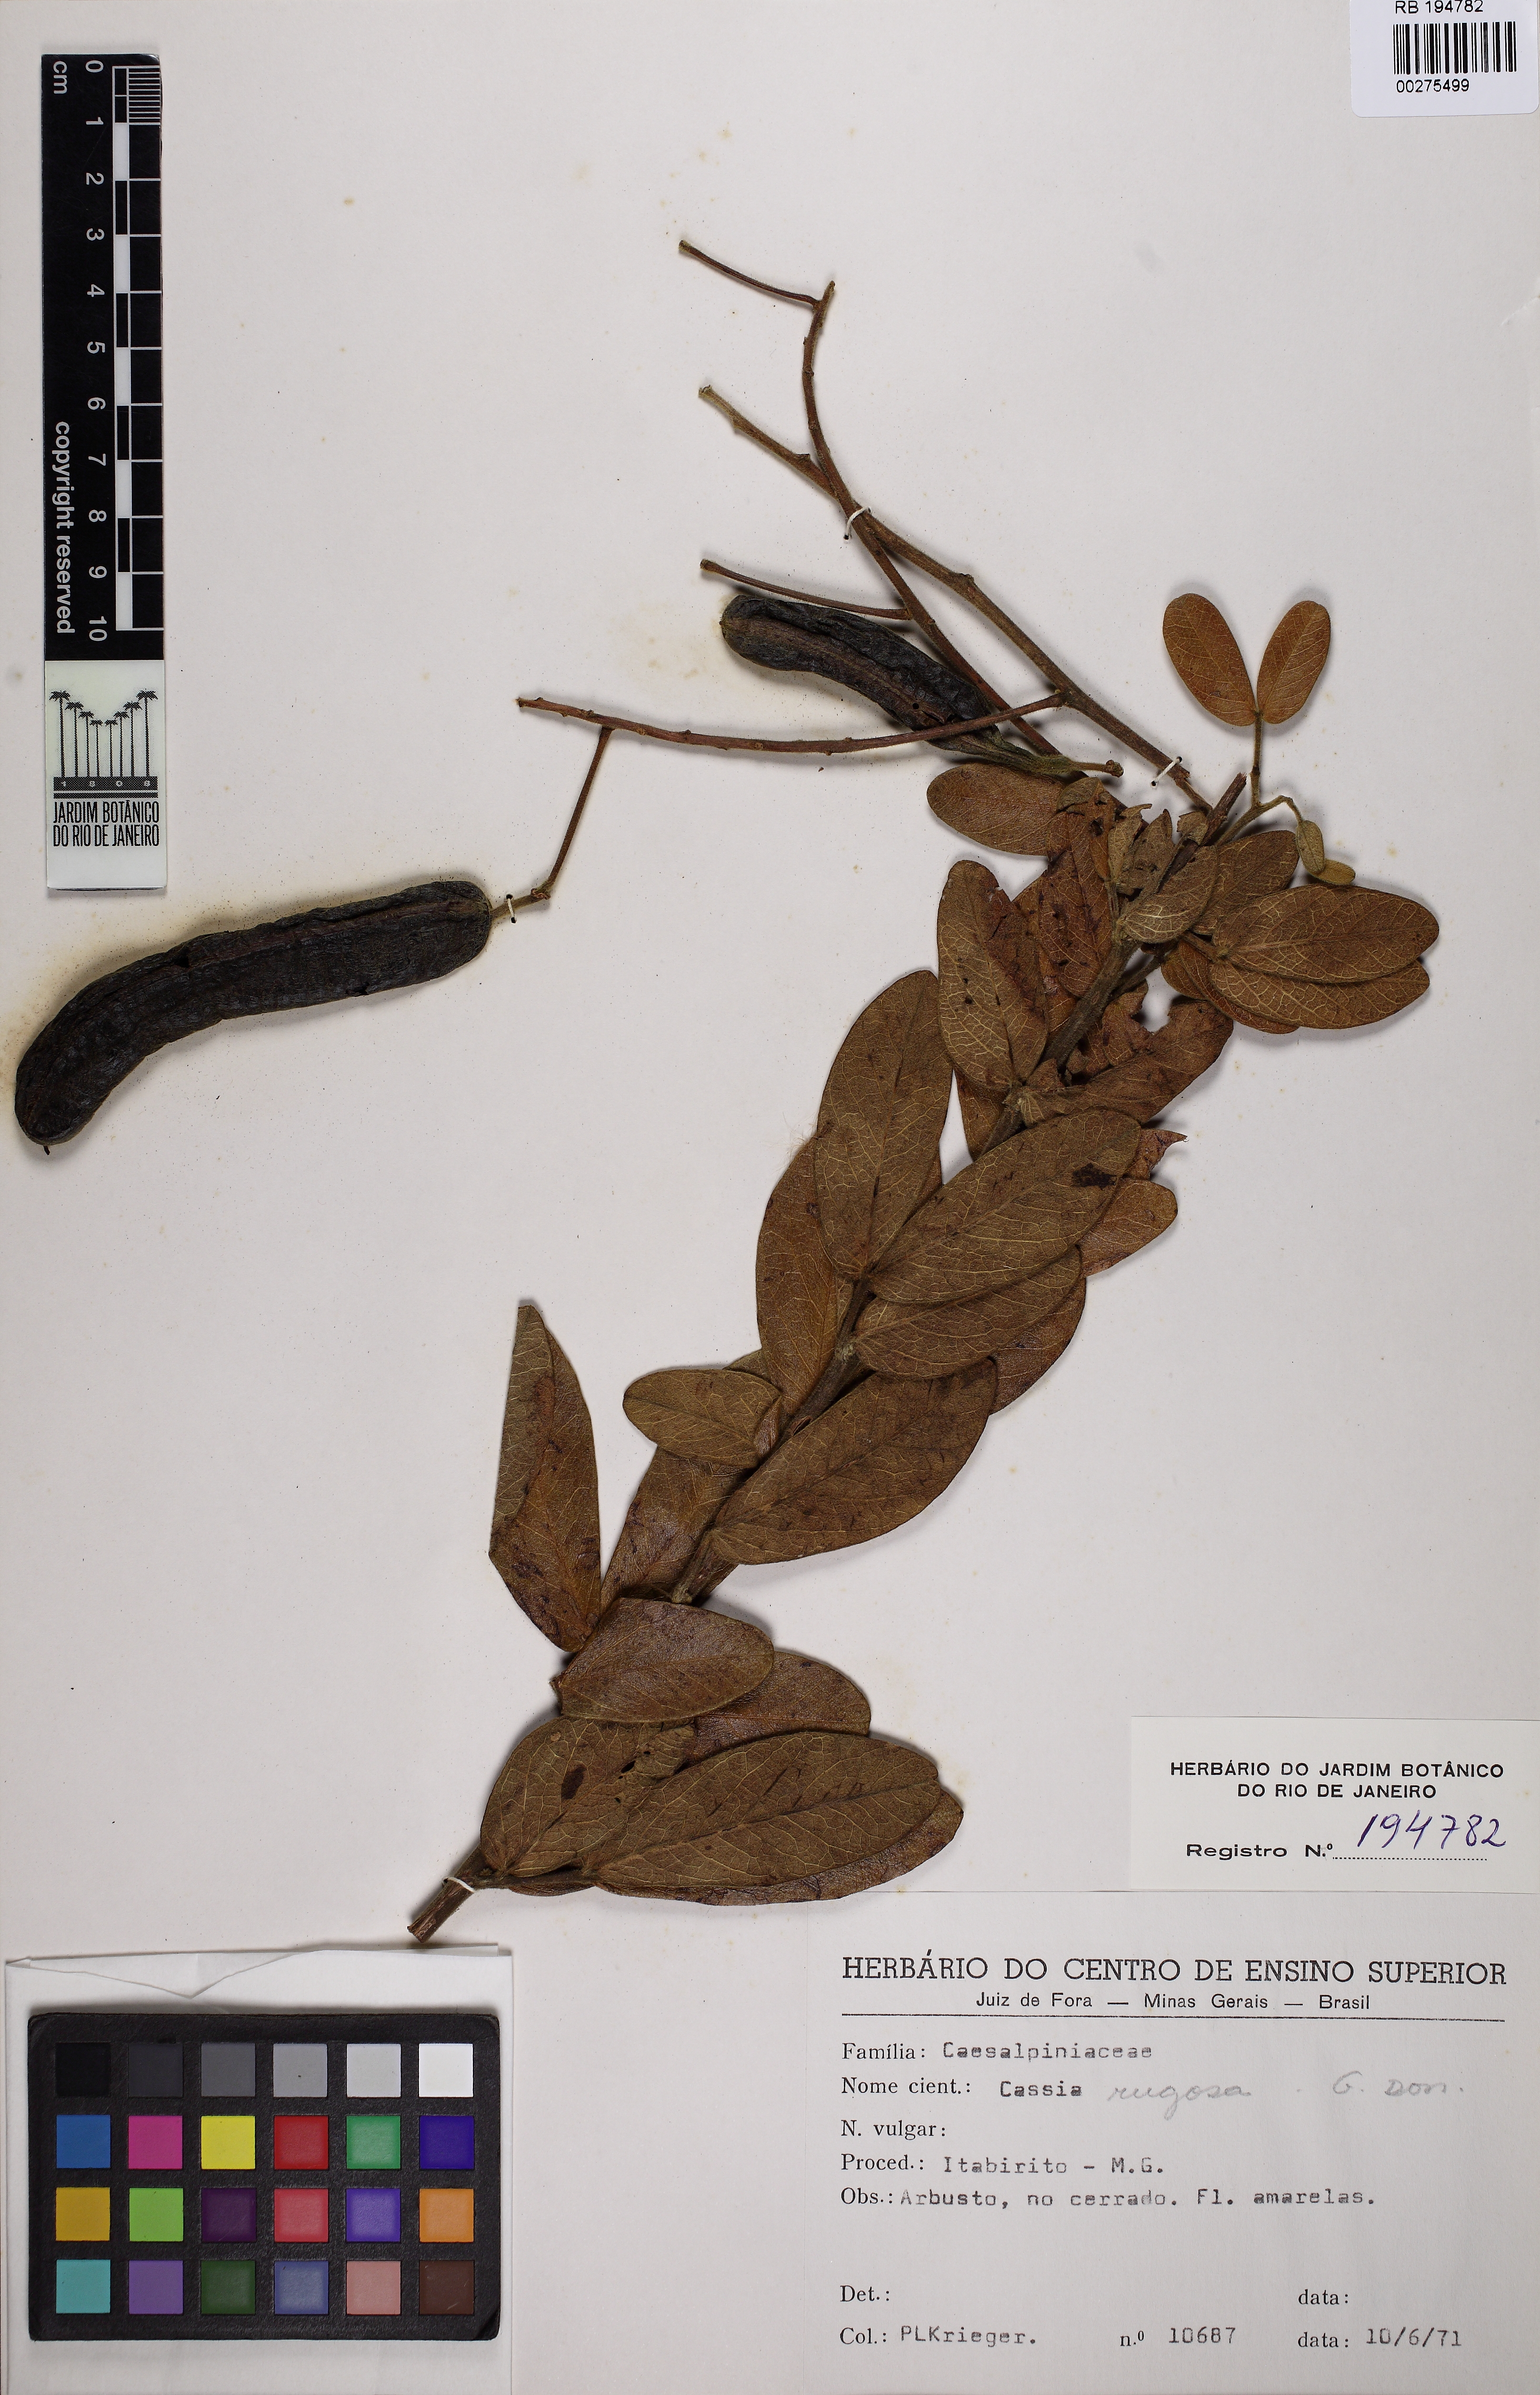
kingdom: Plantae
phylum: Tracheophyta
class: Magnoliopsida
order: Fabales
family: Fabaceae
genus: Senna
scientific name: Senna rugosa
